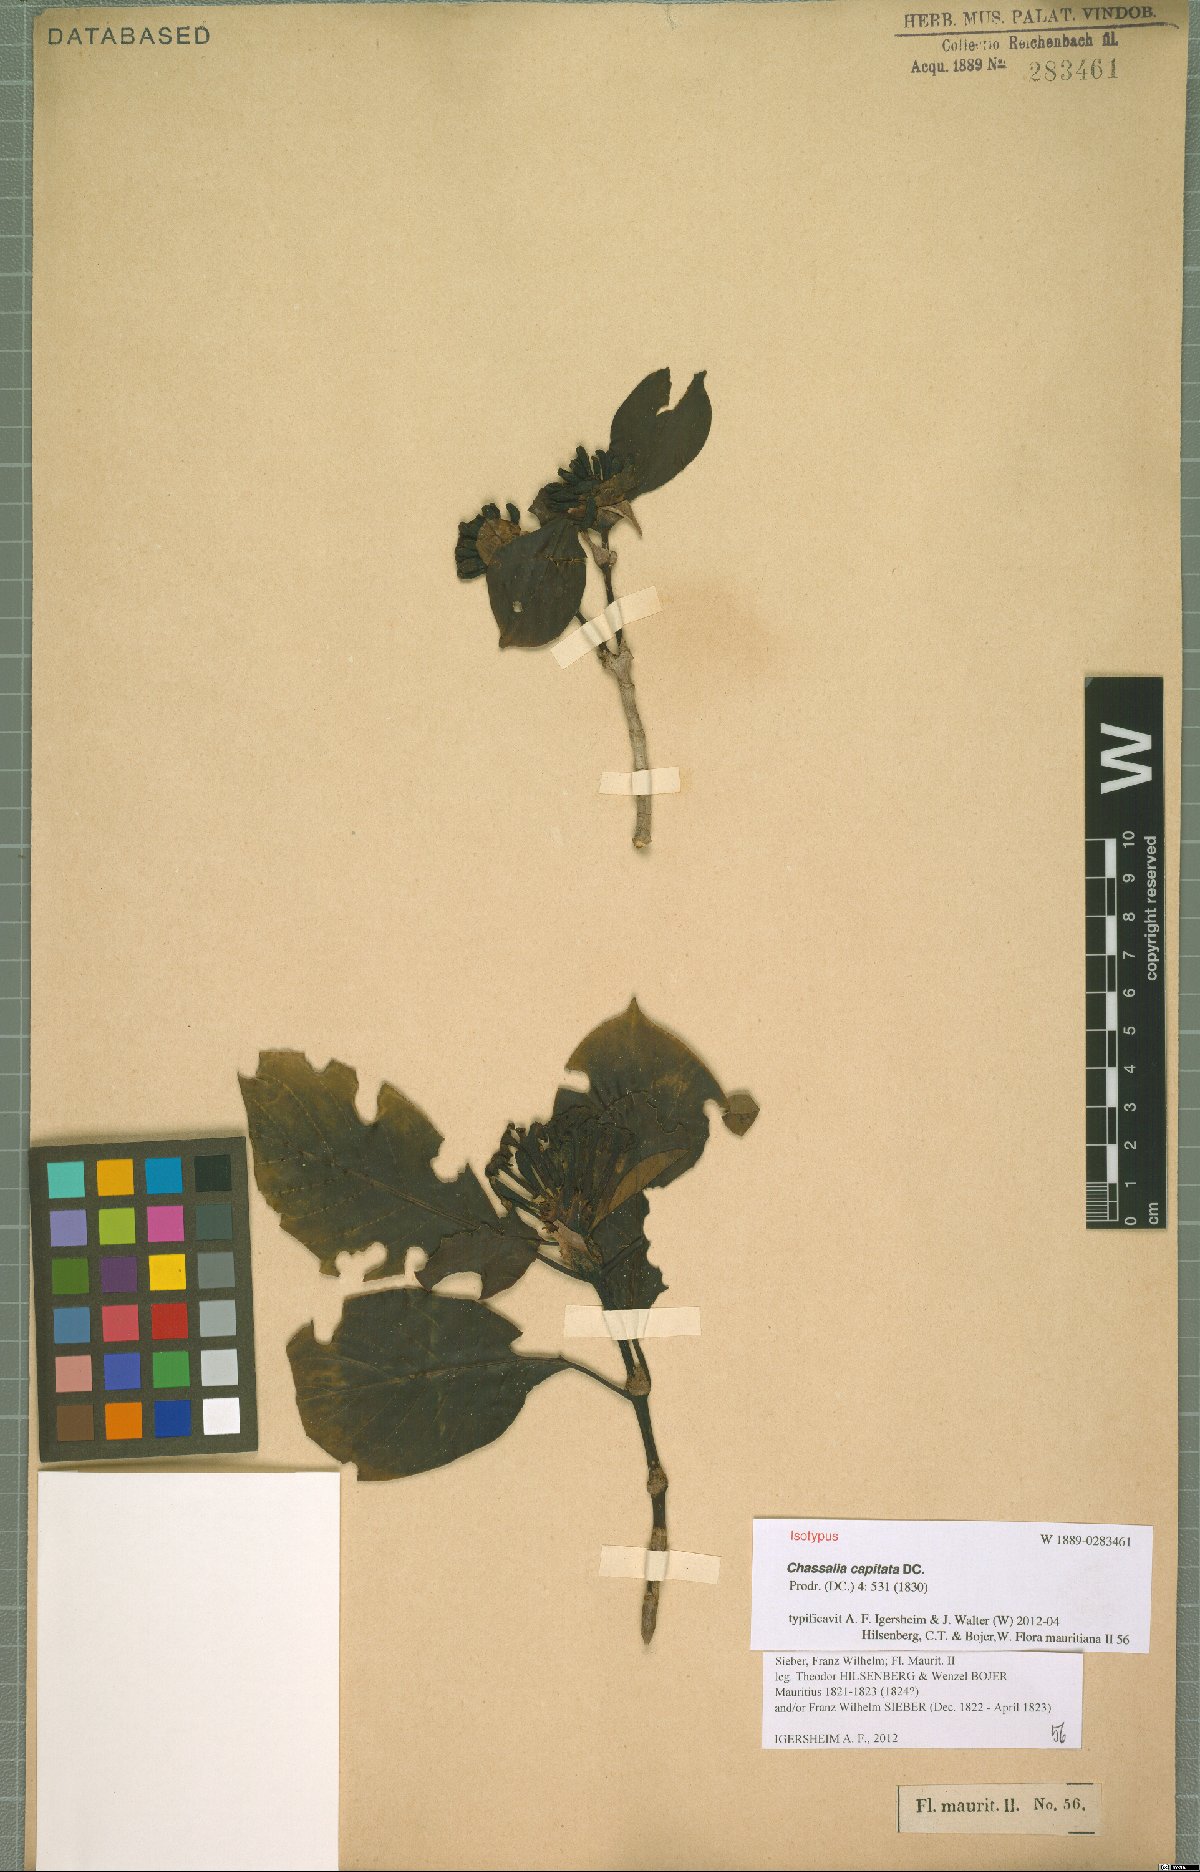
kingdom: Plantae
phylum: Tracheophyta
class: Magnoliopsida
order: Gentianales
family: Rubiaceae
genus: Chassalia
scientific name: Chassalia capitata
